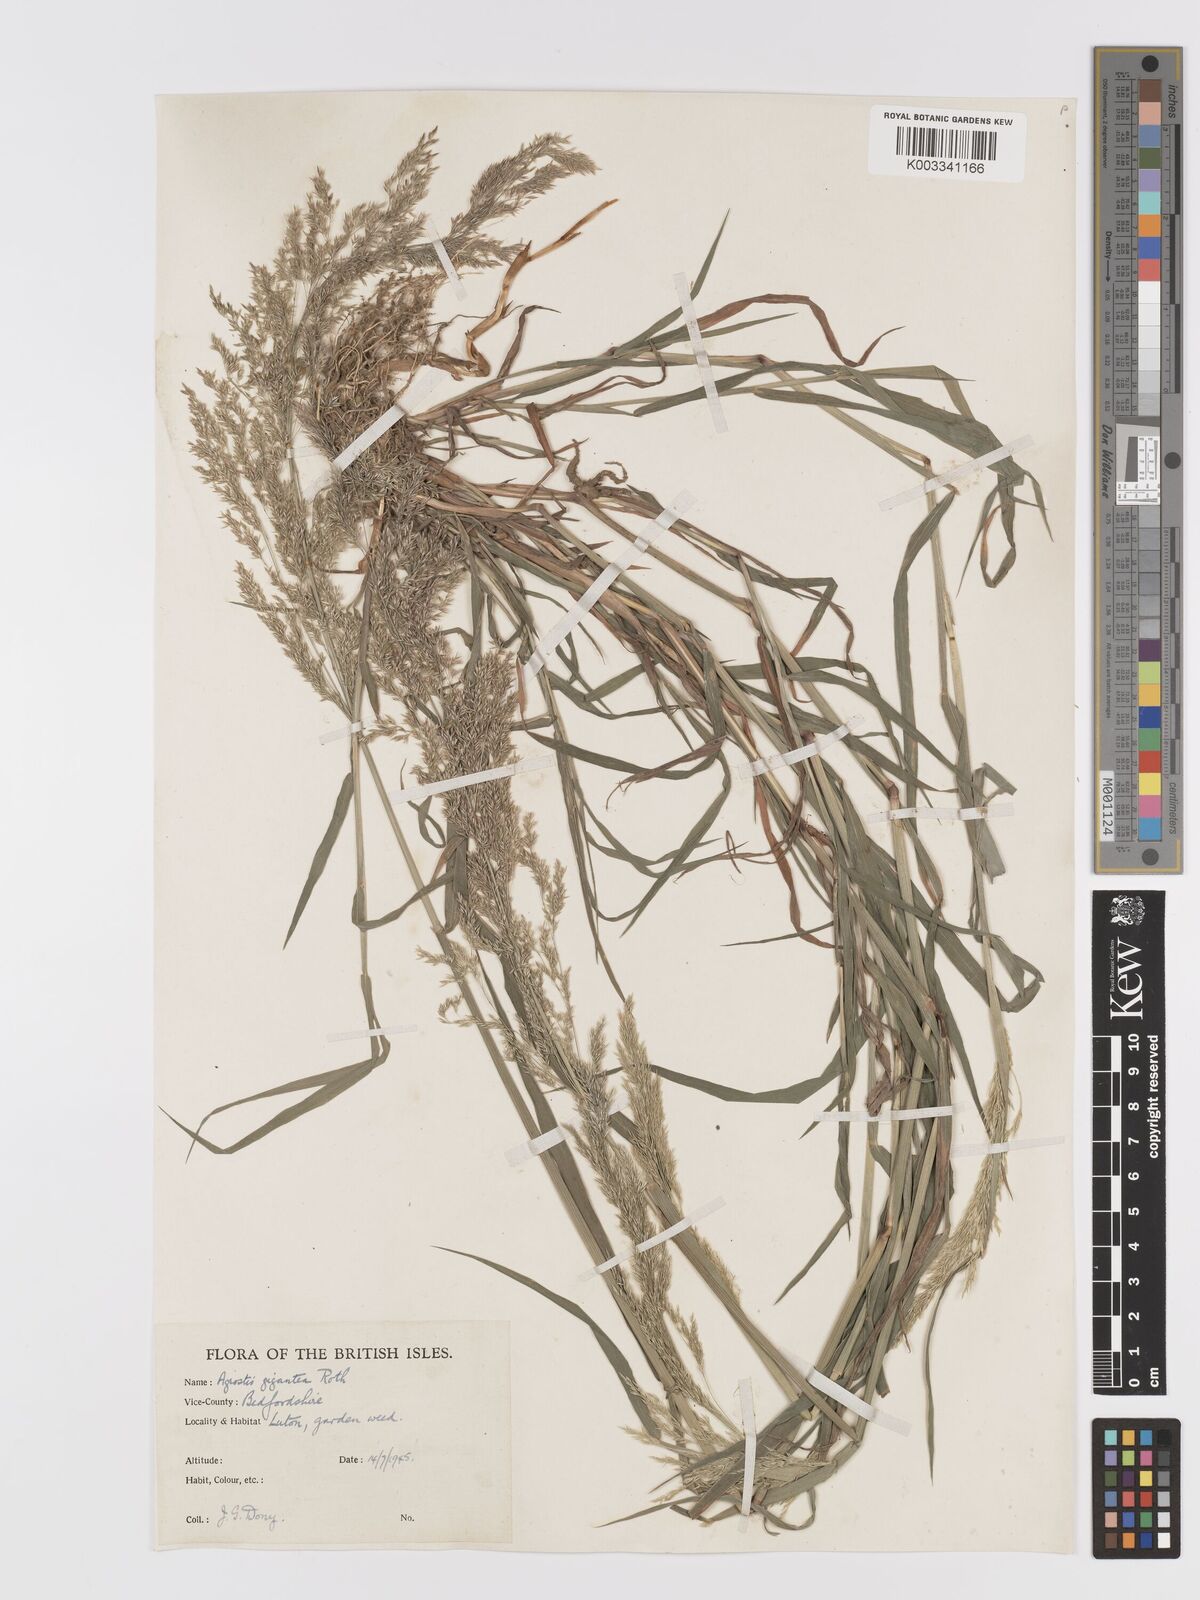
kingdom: Plantae
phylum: Tracheophyta
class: Liliopsida
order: Poales
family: Poaceae
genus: Agrostis
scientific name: Agrostis gigantea
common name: Black bent
